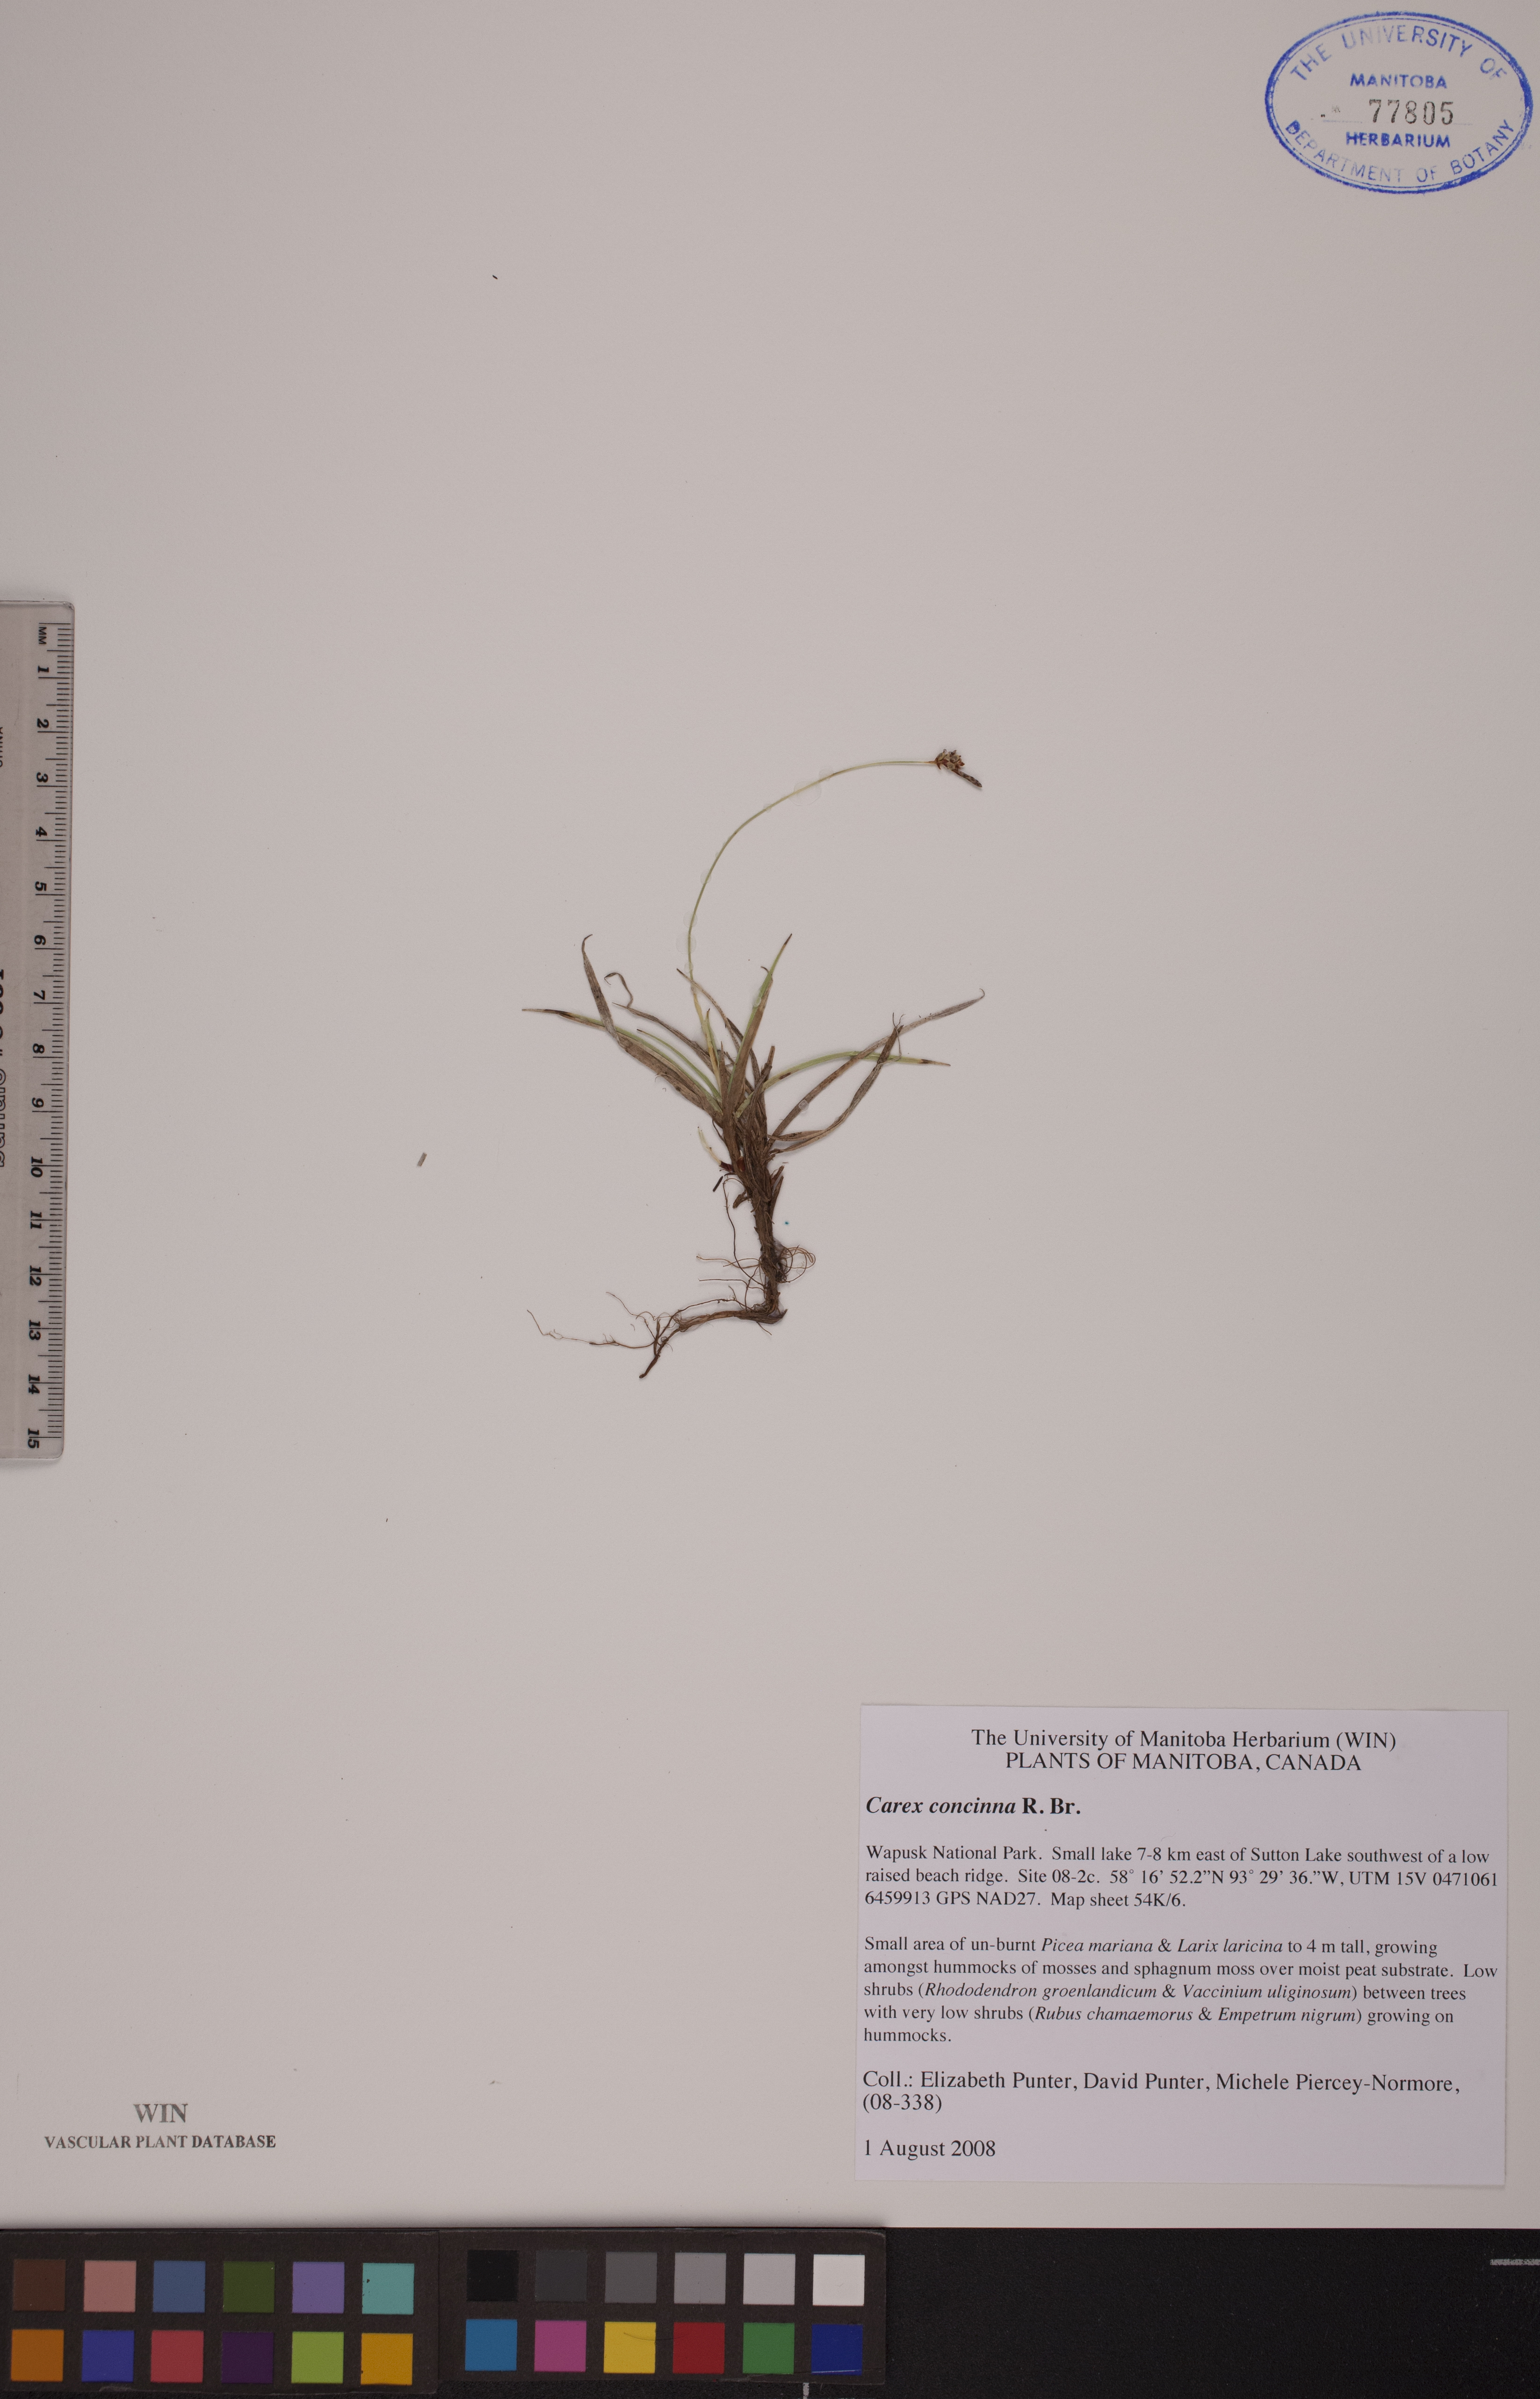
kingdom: Plantae
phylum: Tracheophyta
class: Liliopsida
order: Poales
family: Cyperaceae
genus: Carex
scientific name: Carex concinna
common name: Beautiful sedge
